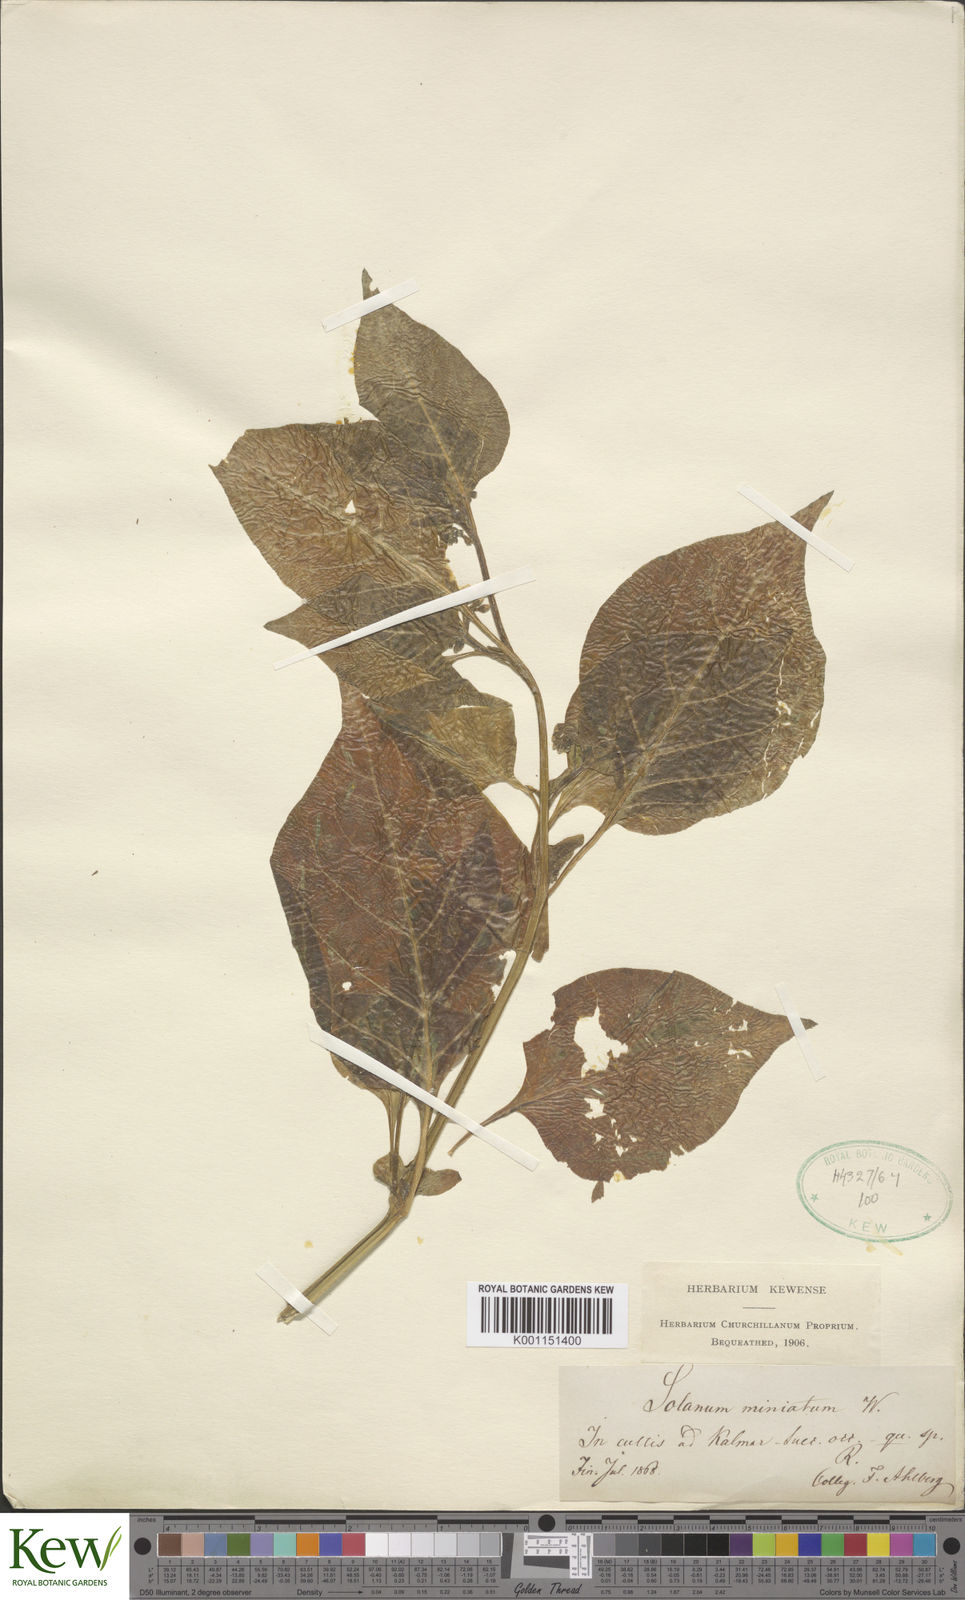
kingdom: Plantae
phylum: Tracheophyta
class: Magnoliopsida
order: Solanales
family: Solanaceae
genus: Solanum
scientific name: Solanum alatum
